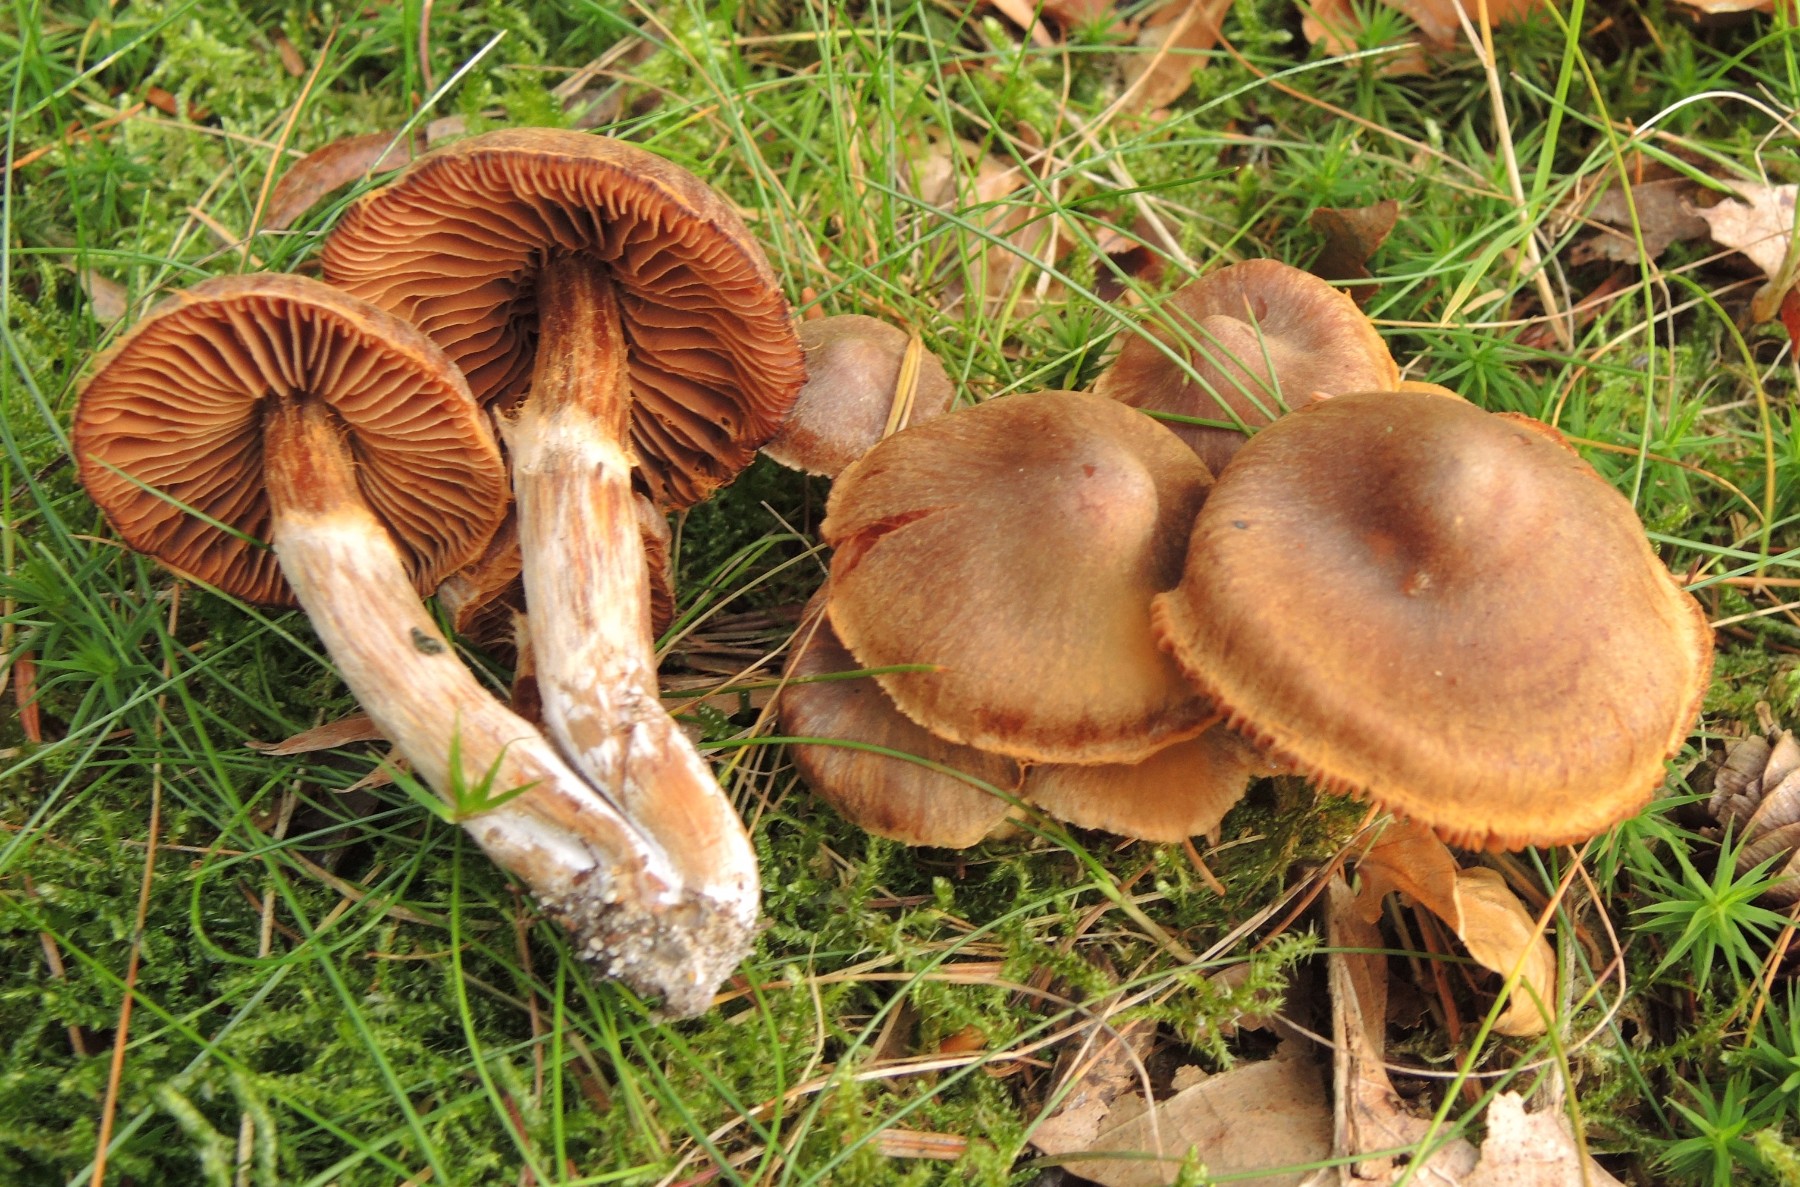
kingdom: Fungi
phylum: Basidiomycota
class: Agaricomycetes
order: Agaricales
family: Cortinariaceae
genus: Cortinarius
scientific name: Cortinarius
